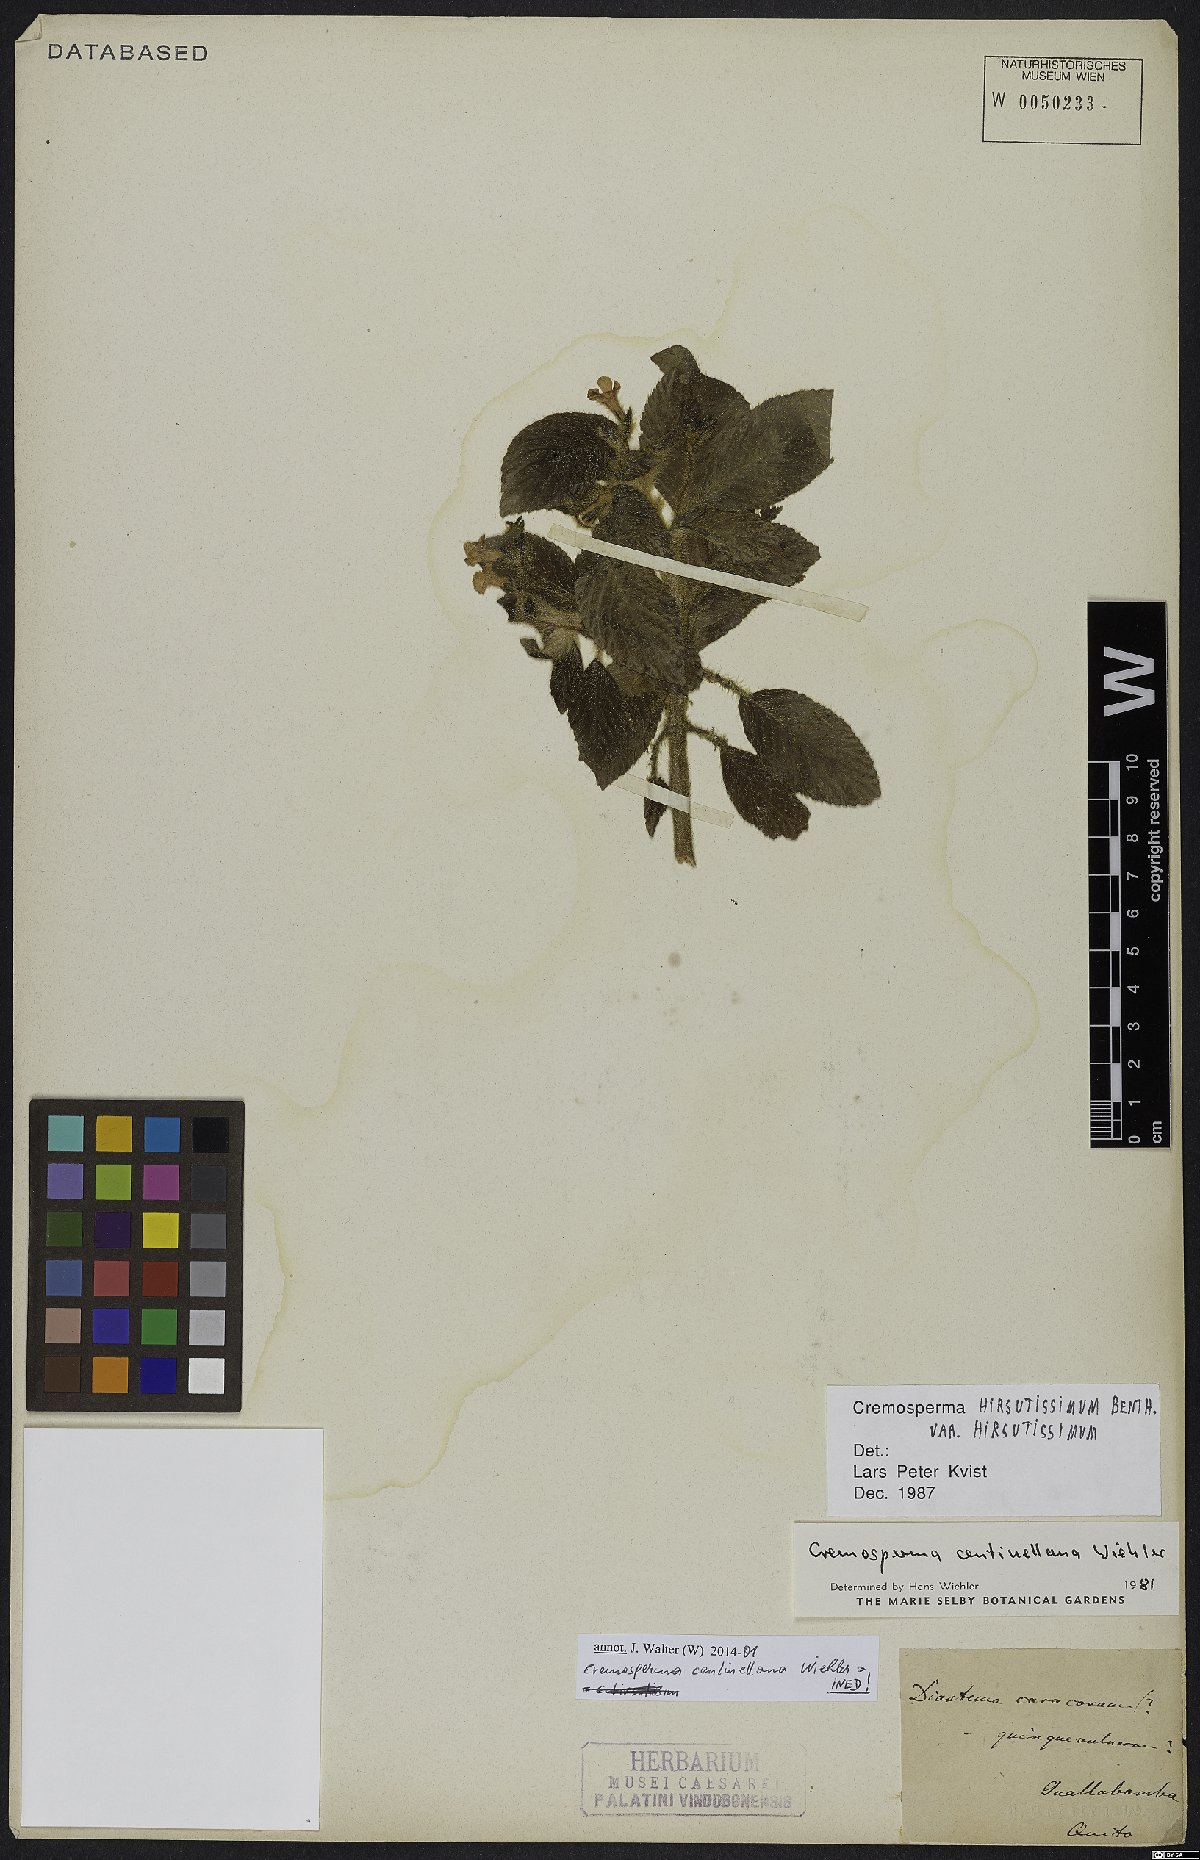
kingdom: Plantae
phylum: Tracheophyta
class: Magnoliopsida
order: Lamiales
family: Gesneriaceae
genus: Cremosperma
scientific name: Cremosperma hirsutissimum
